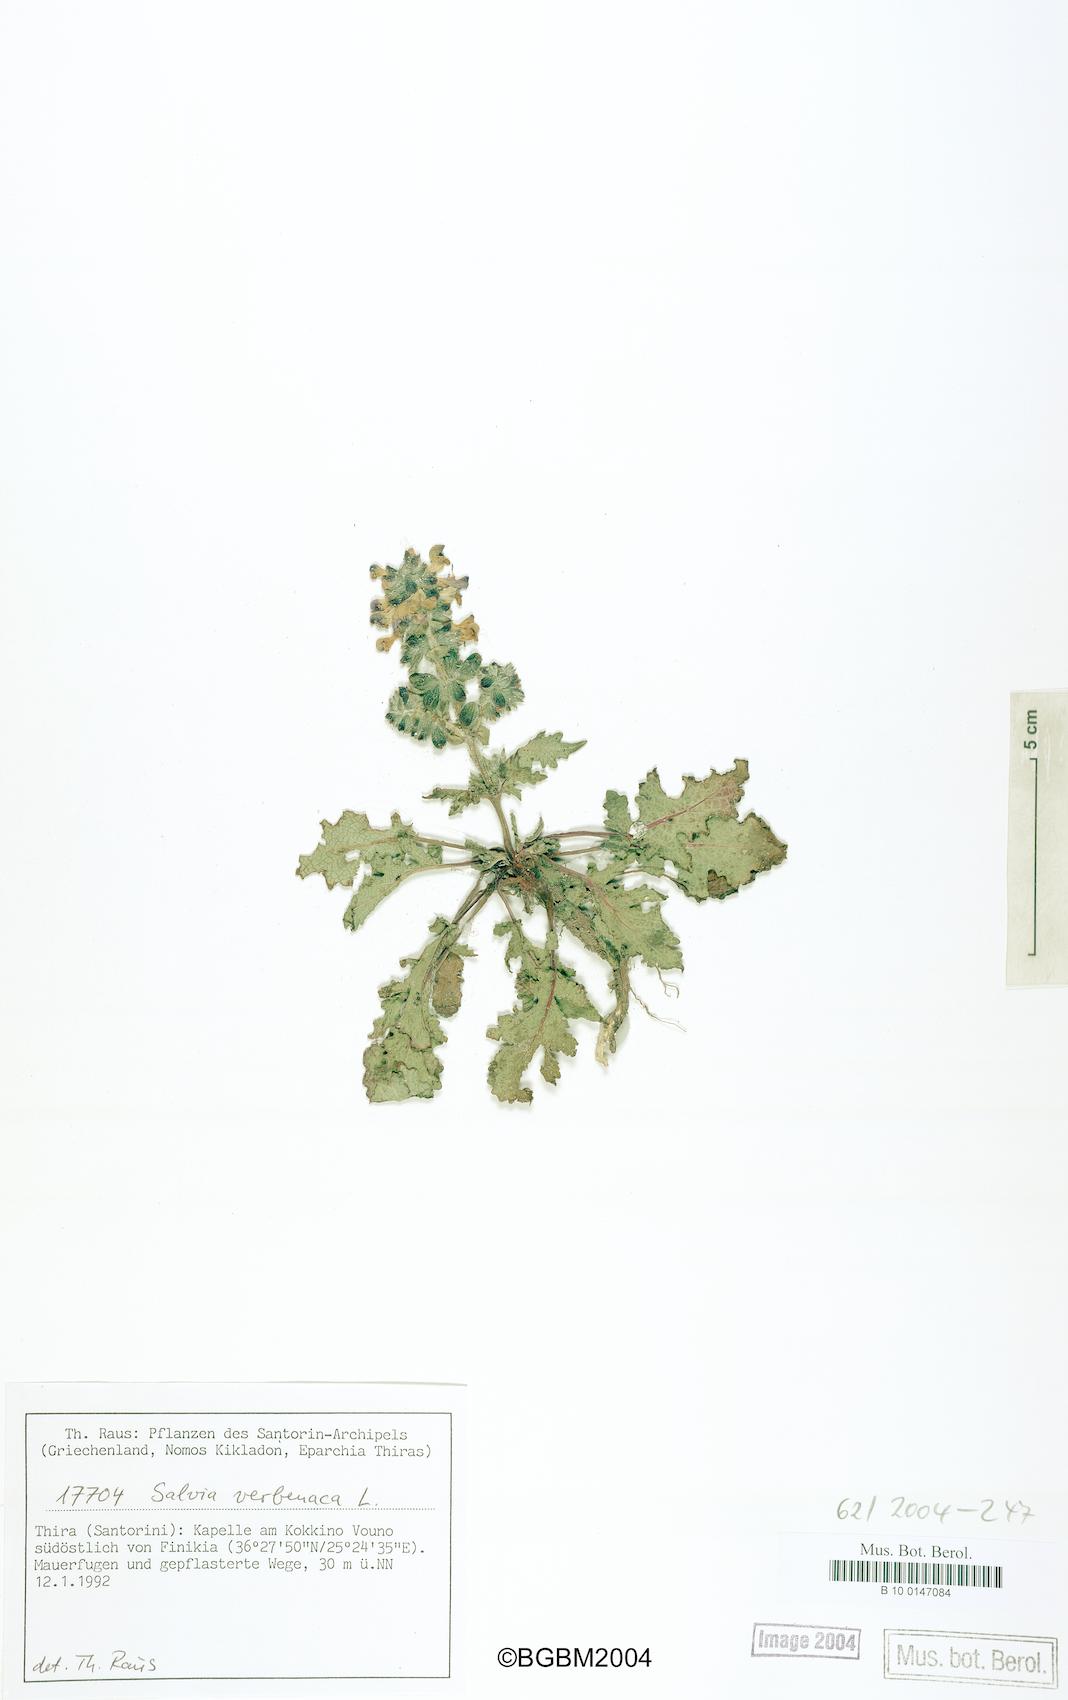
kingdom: Plantae
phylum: Tracheophyta
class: Magnoliopsida
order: Lamiales
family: Lamiaceae
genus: Salvia
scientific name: Salvia verbenaca
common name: Wild clary
